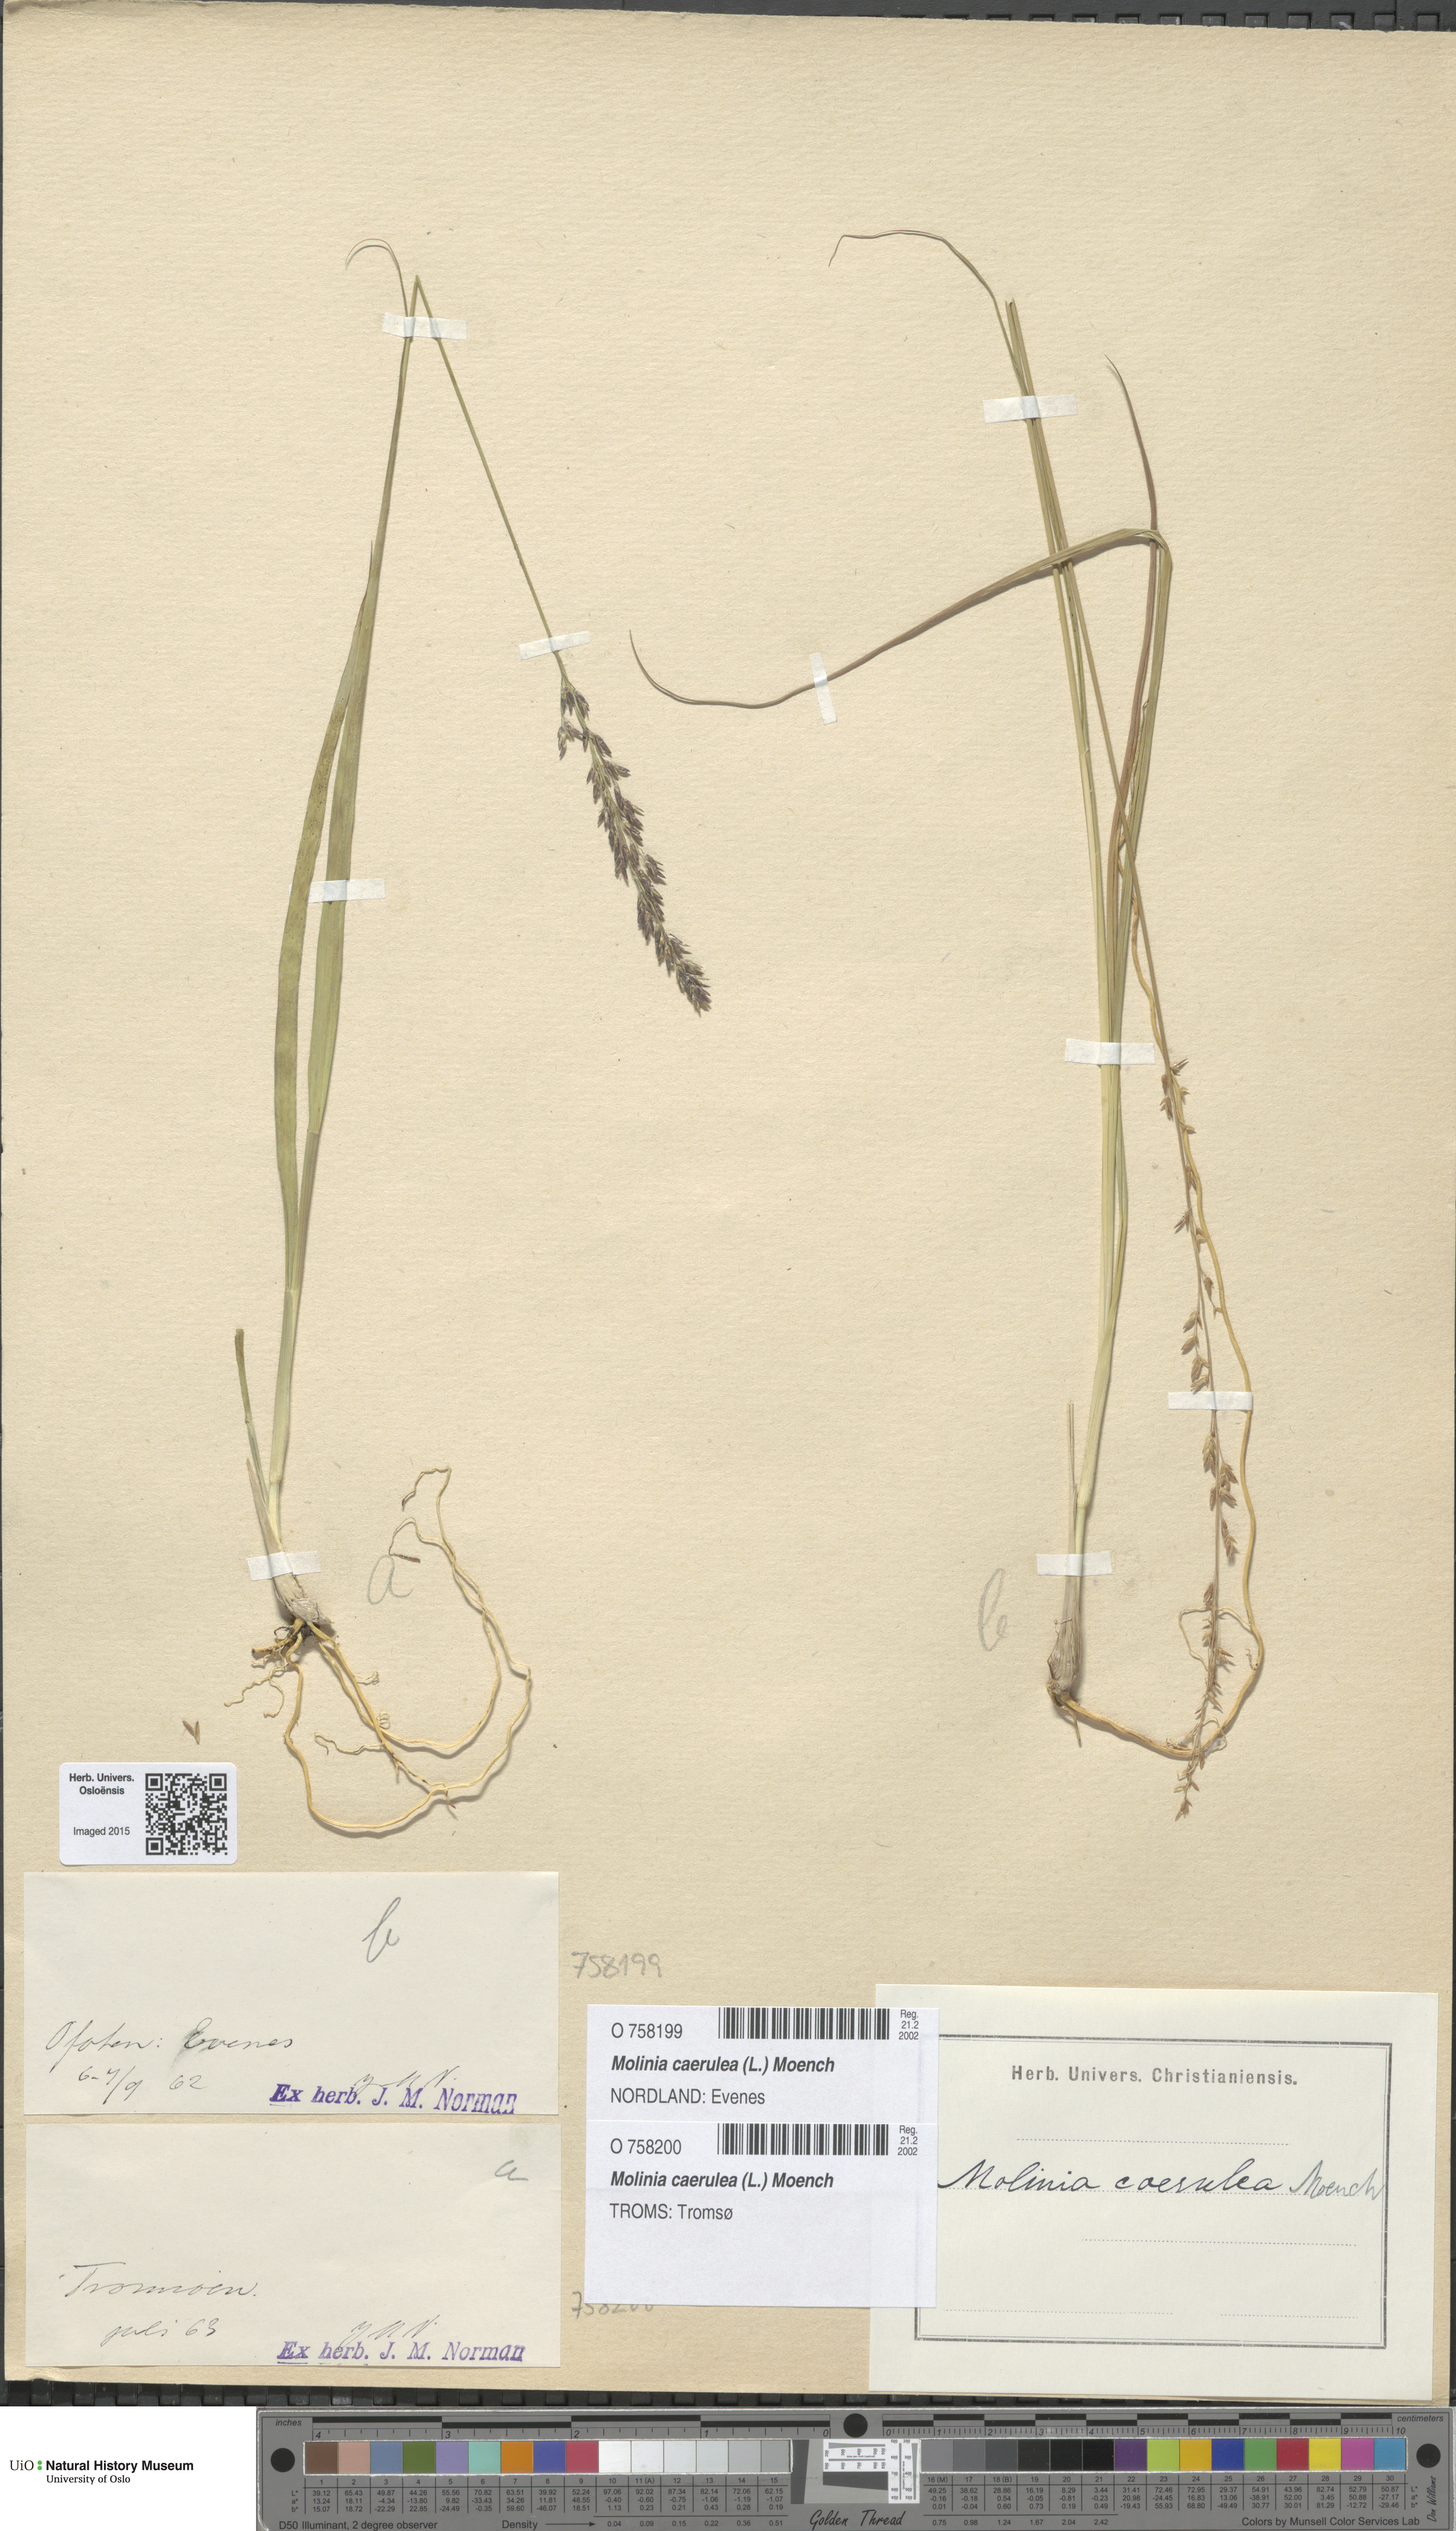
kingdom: Plantae
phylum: Tracheophyta
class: Liliopsida
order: Poales
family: Poaceae
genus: Molinia
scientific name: Molinia caerulea
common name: Purple moor-grass
